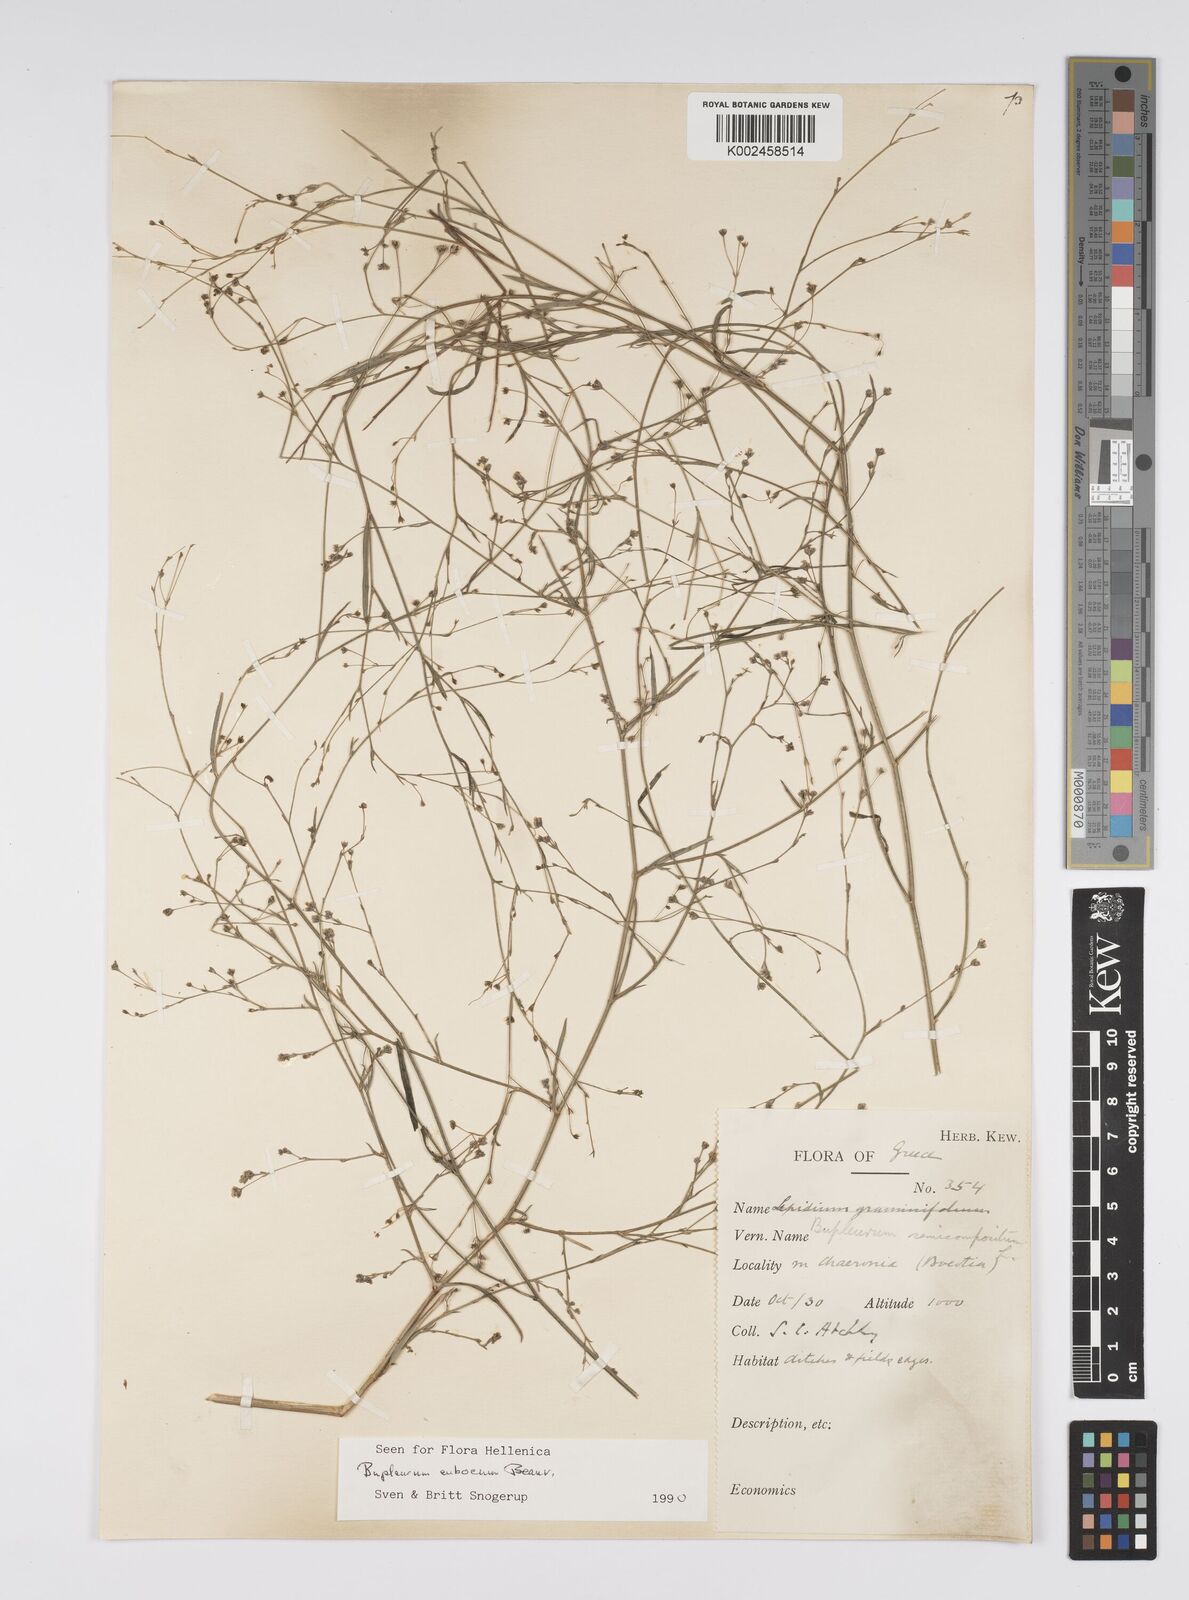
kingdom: Plantae
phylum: Tracheophyta
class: Magnoliopsida
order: Apiales
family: Apiaceae
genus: Bupleurum
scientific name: Bupleurum tenuissimum
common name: Slender hare's-ear
